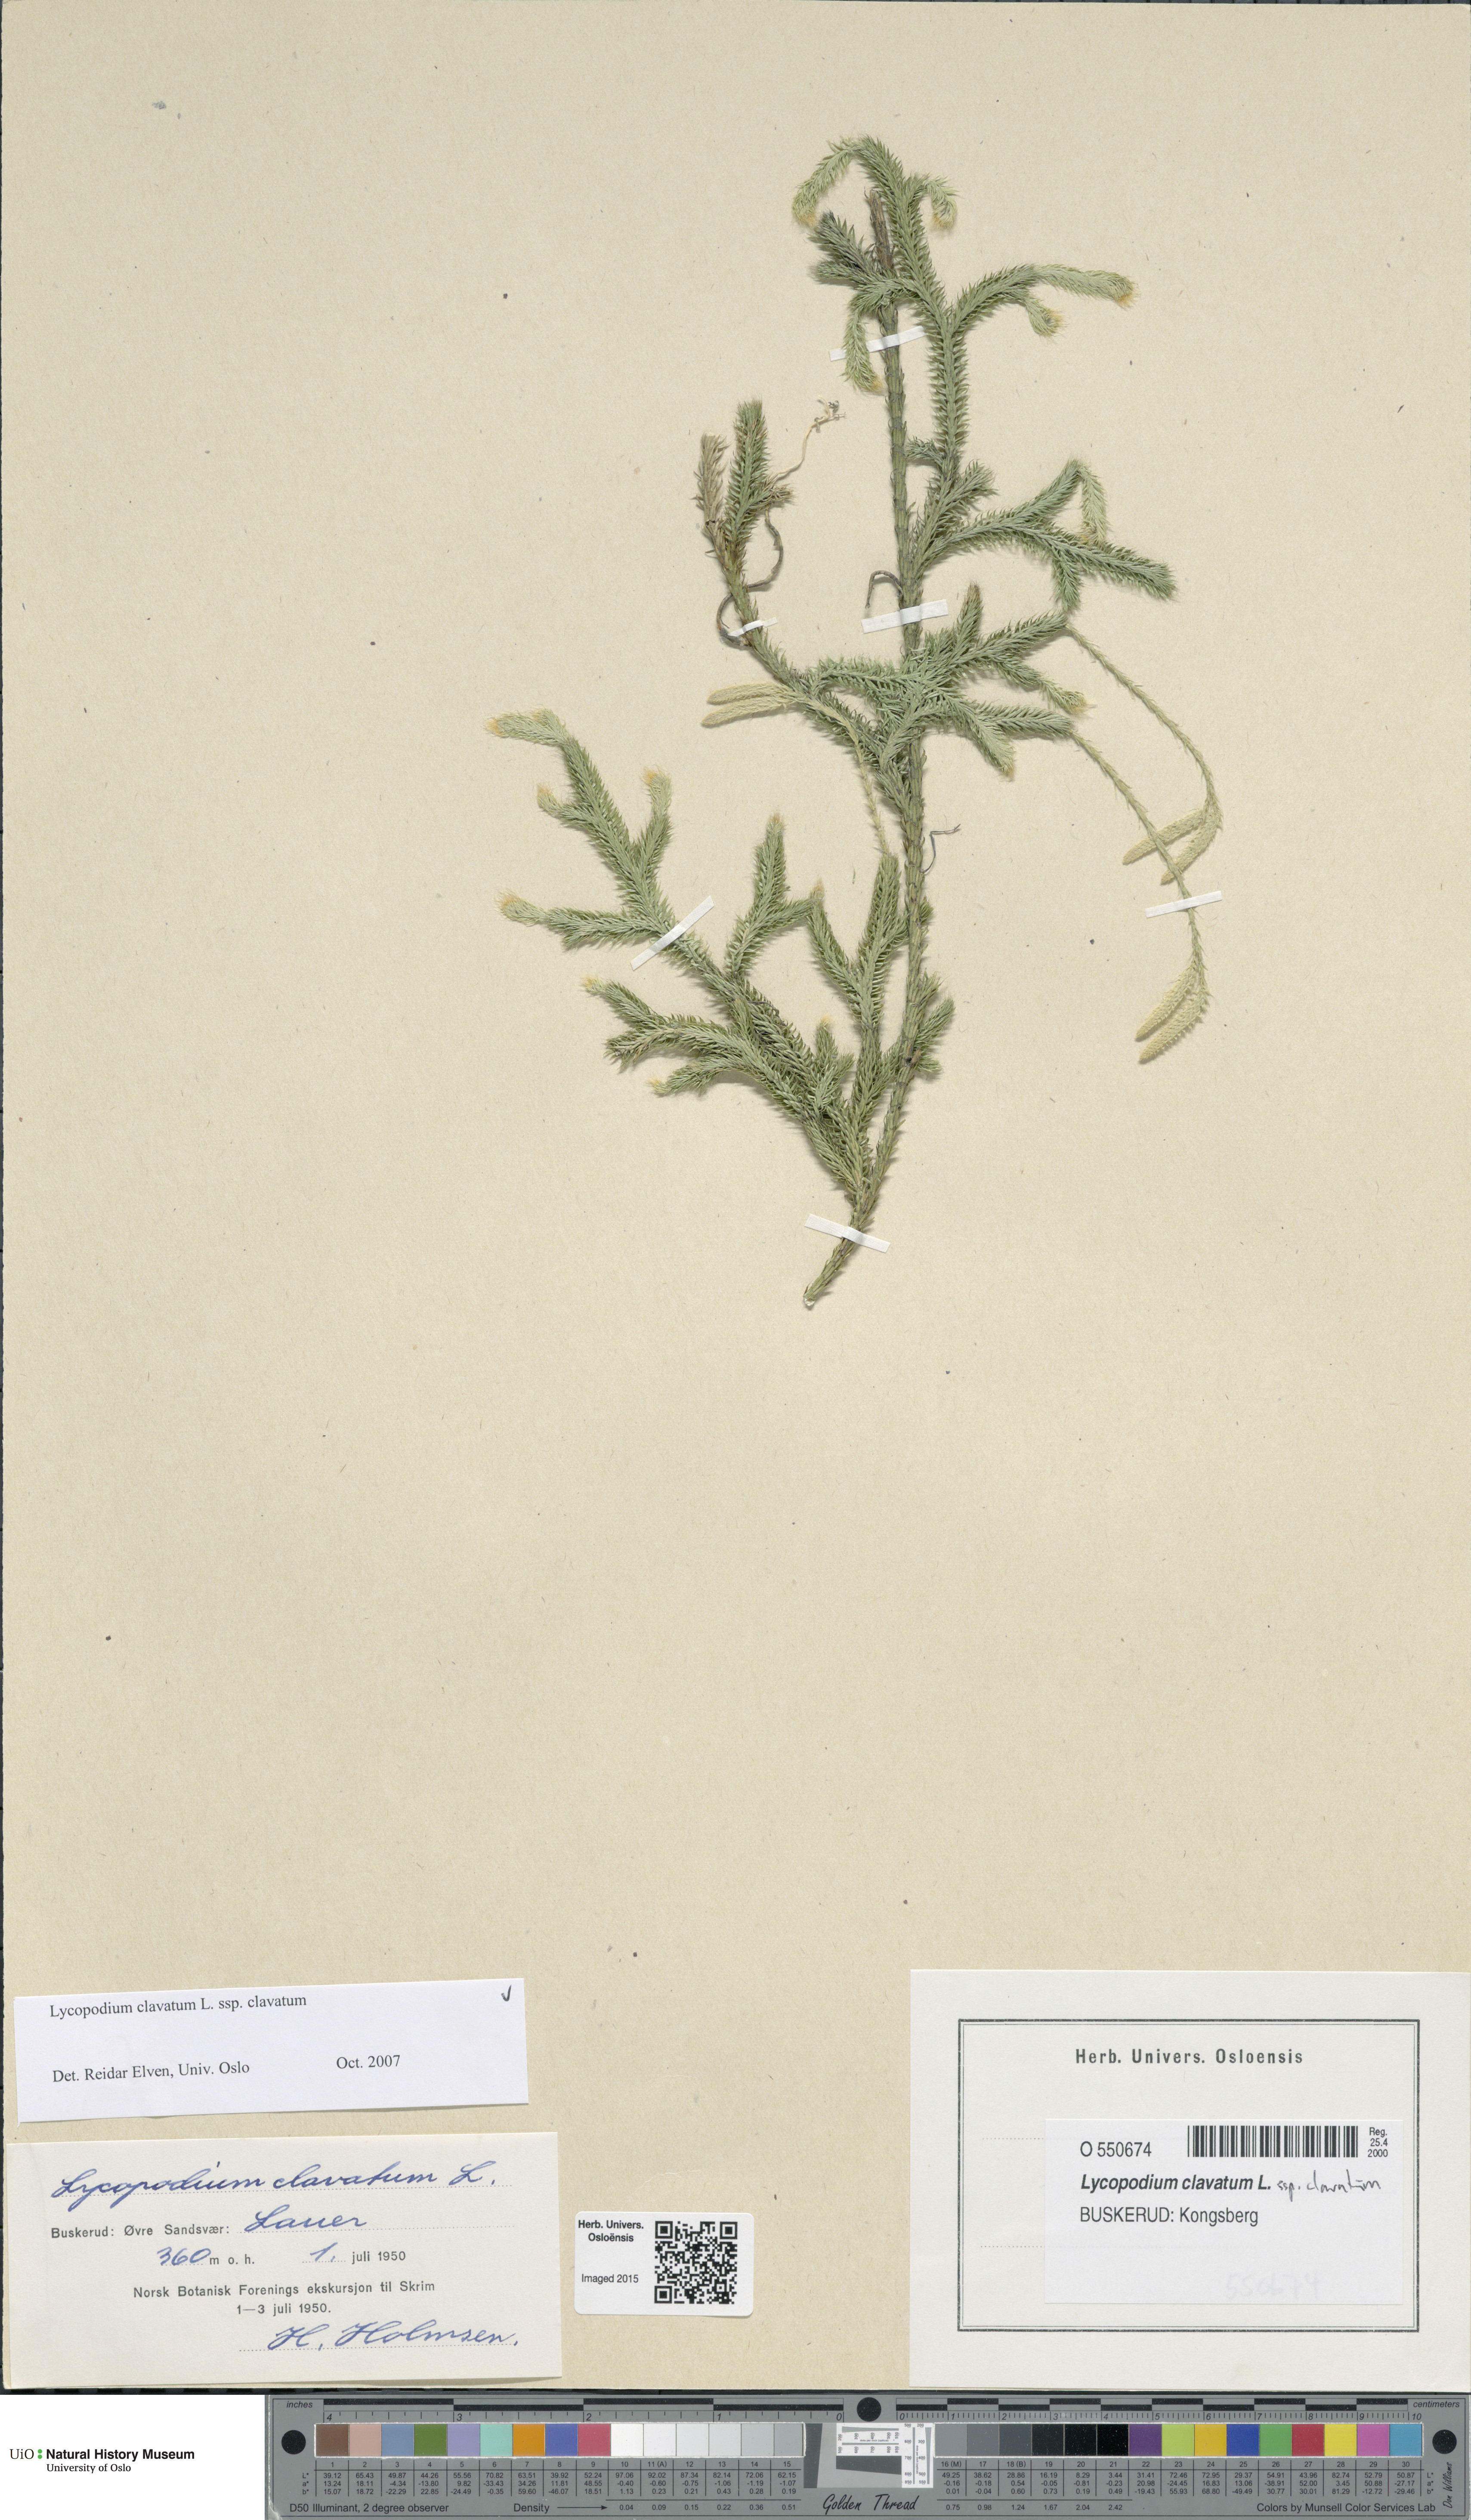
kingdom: Plantae
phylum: Tracheophyta
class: Lycopodiopsida
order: Lycopodiales
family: Lycopodiaceae
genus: Lycopodium
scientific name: Lycopodium clavatum
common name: Stag's-horn clubmoss
